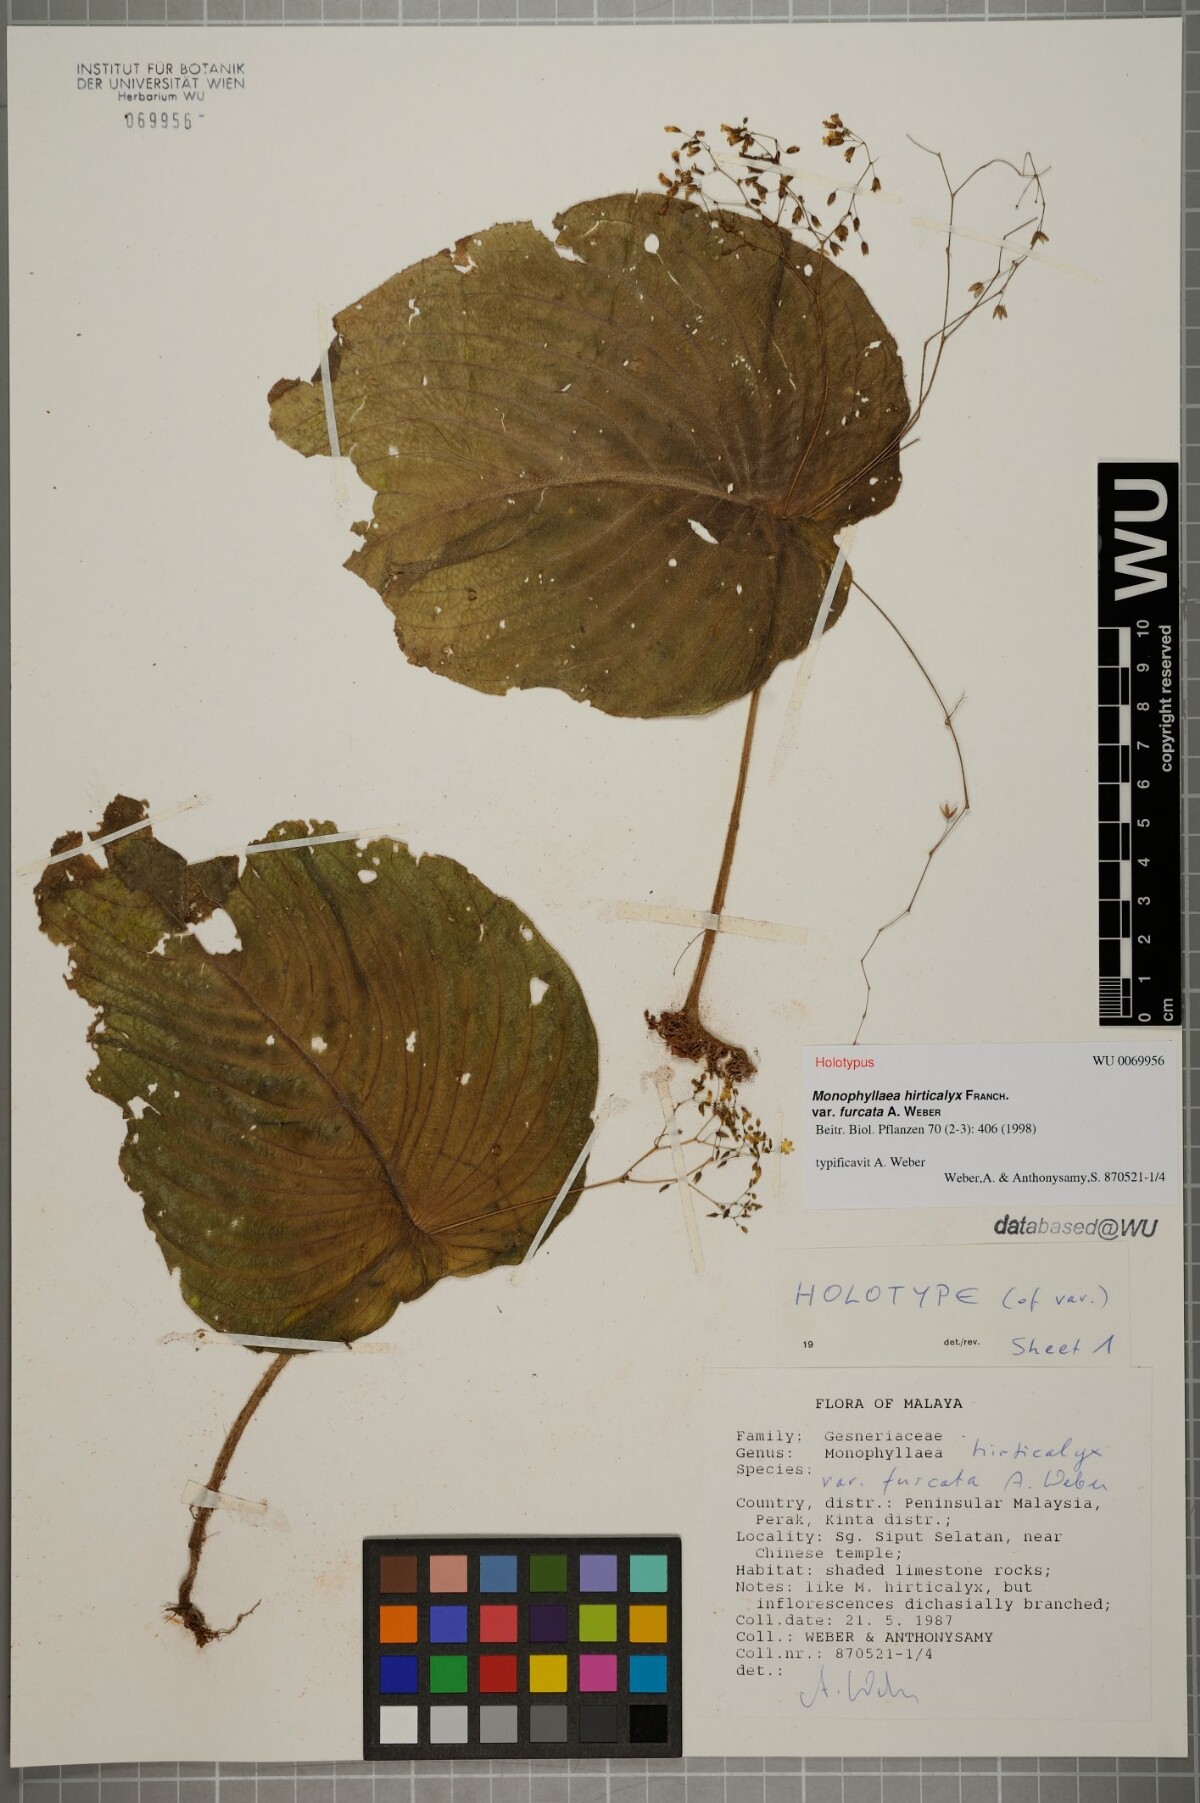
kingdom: Plantae
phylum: Tracheophyta
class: Magnoliopsida
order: Lamiales
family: Gesneriaceae
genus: Monophyllaea
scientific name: Monophyllaea hirticalyx
